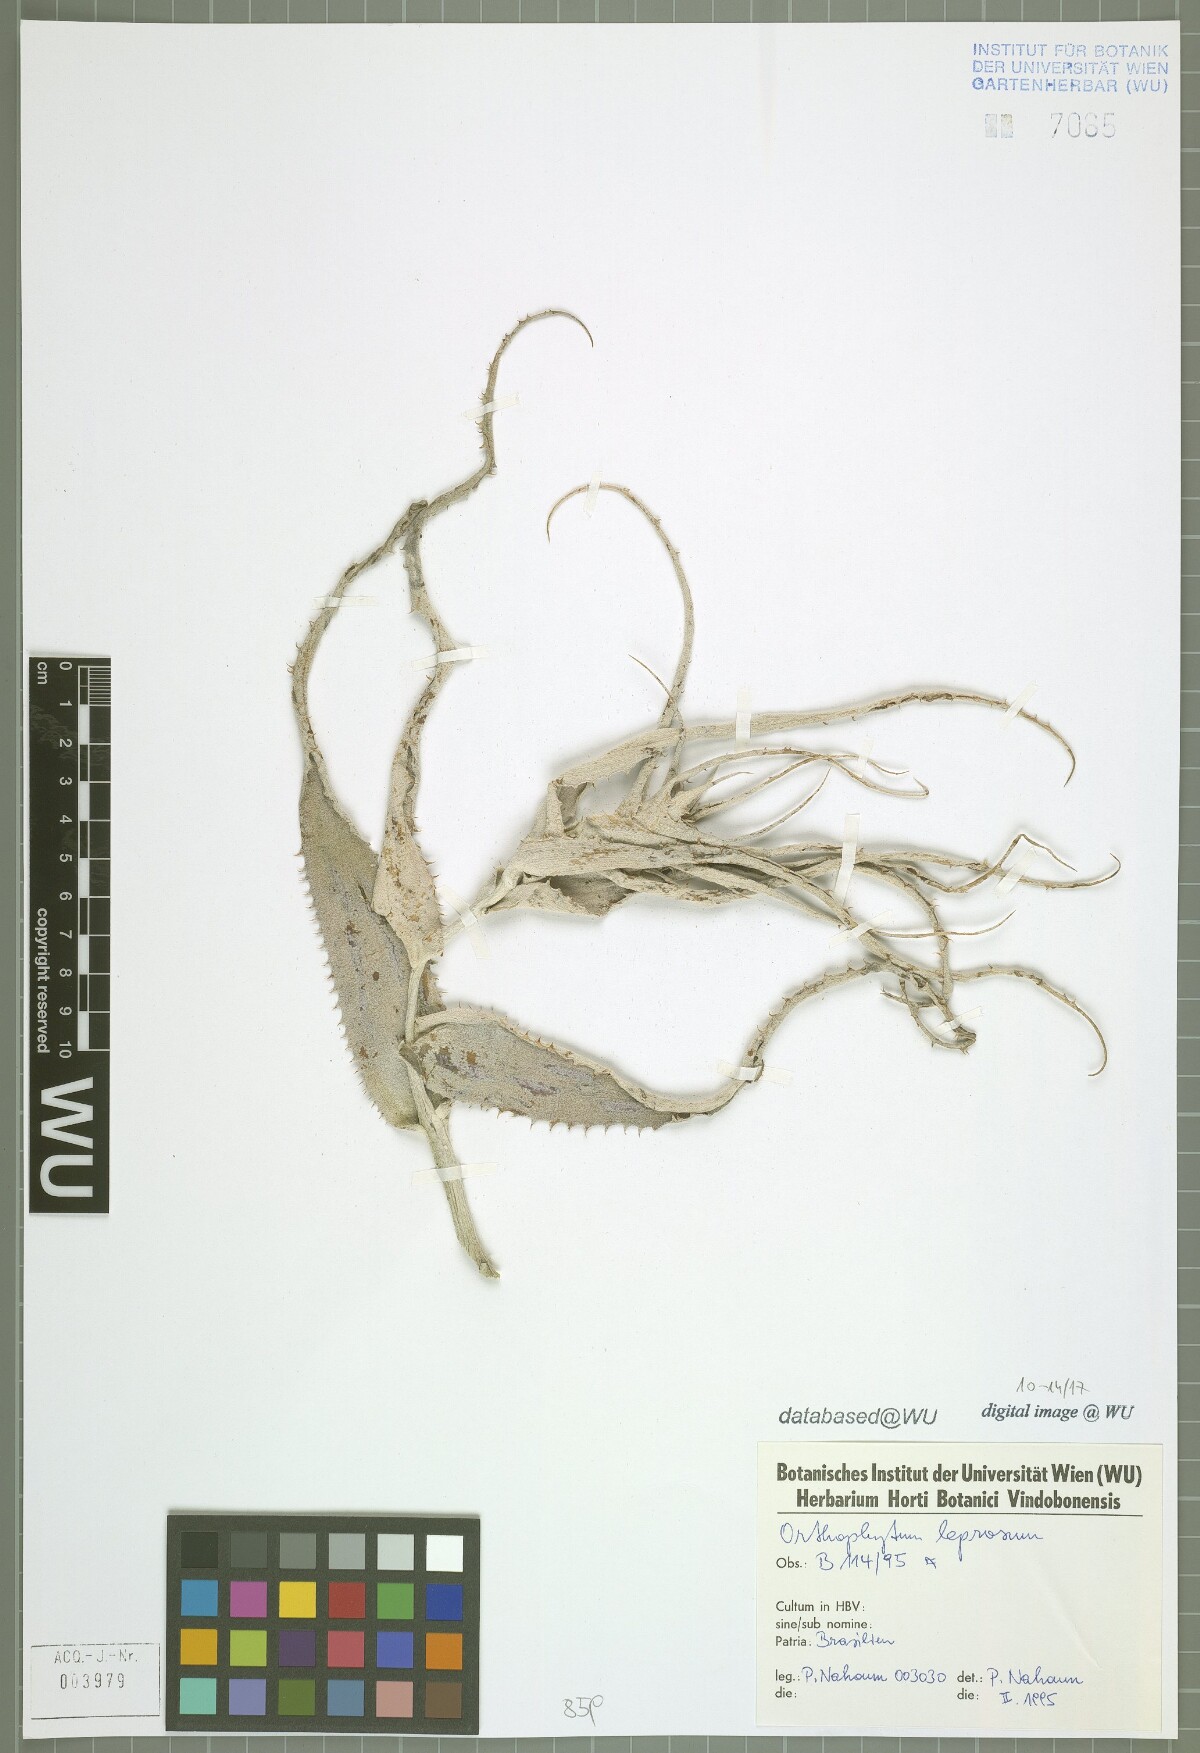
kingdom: Plantae
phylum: Tracheophyta
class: Liliopsida
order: Poales
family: Bromeliaceae
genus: Orthophytum
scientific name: Orthophytum leprosum
